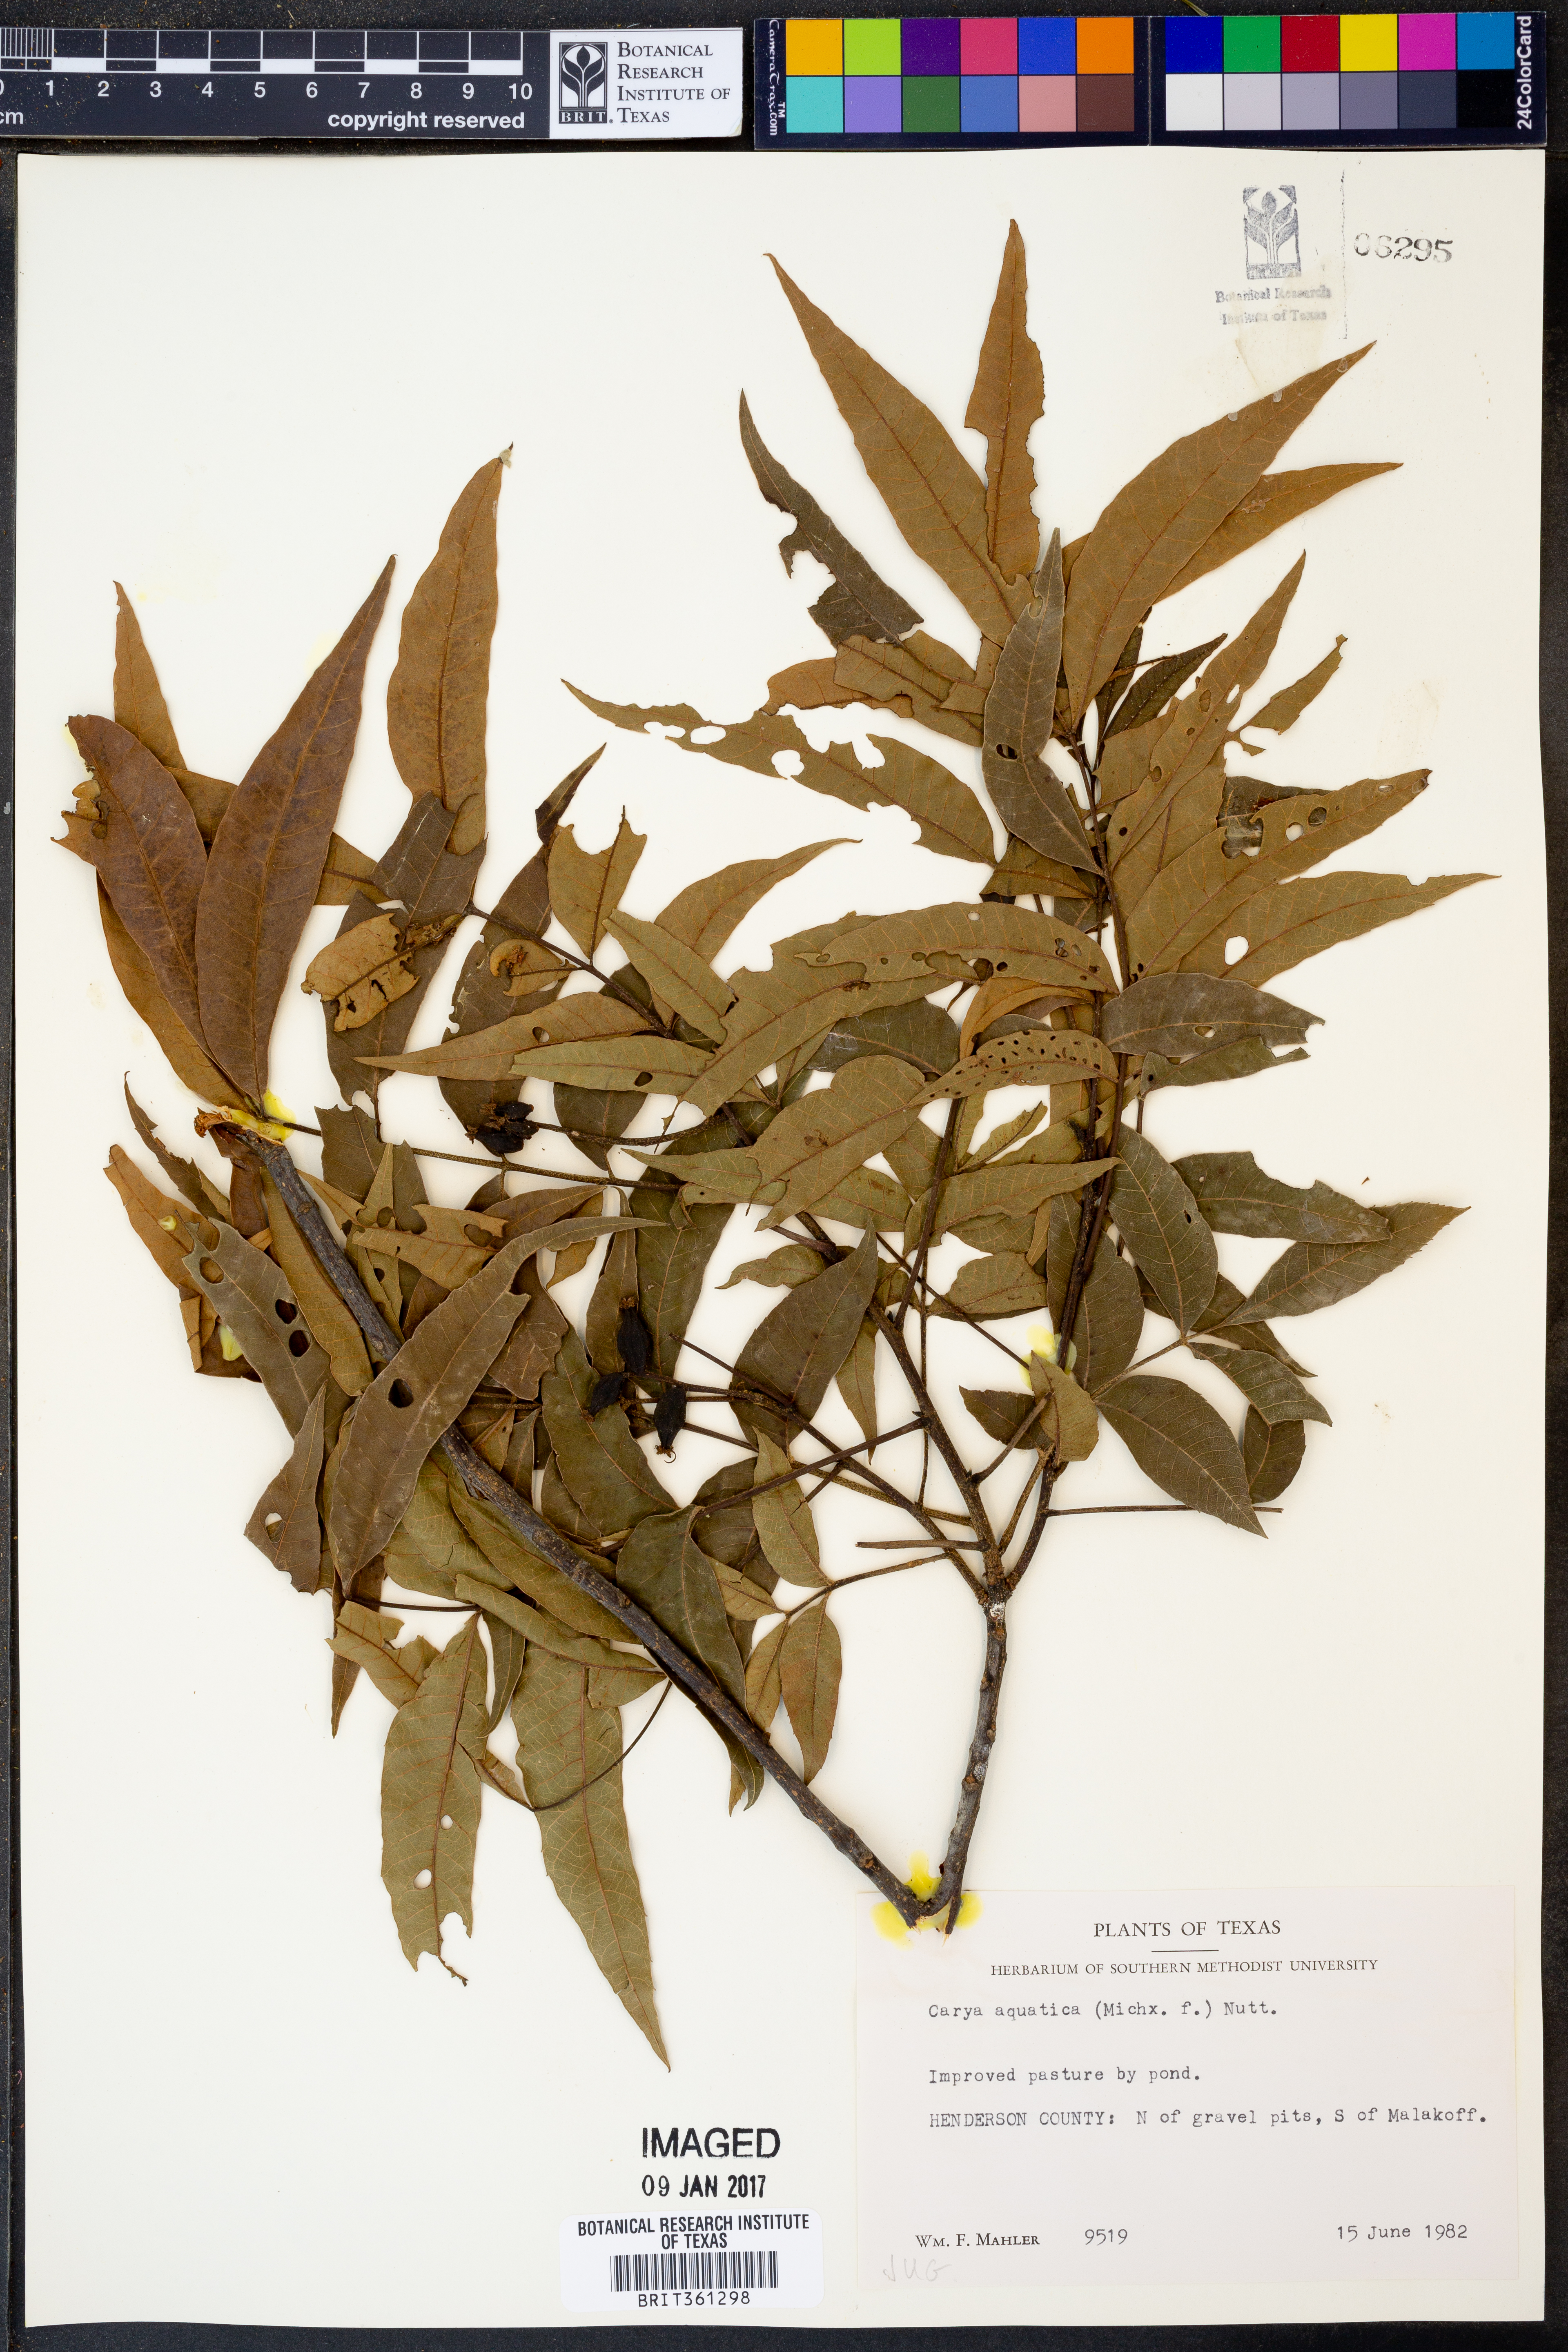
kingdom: Plantae
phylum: Tracheophyta
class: Magnoliopsida
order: Fagales
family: Juglandaceae
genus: Carya
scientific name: Carya aquatica
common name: Water hickory
